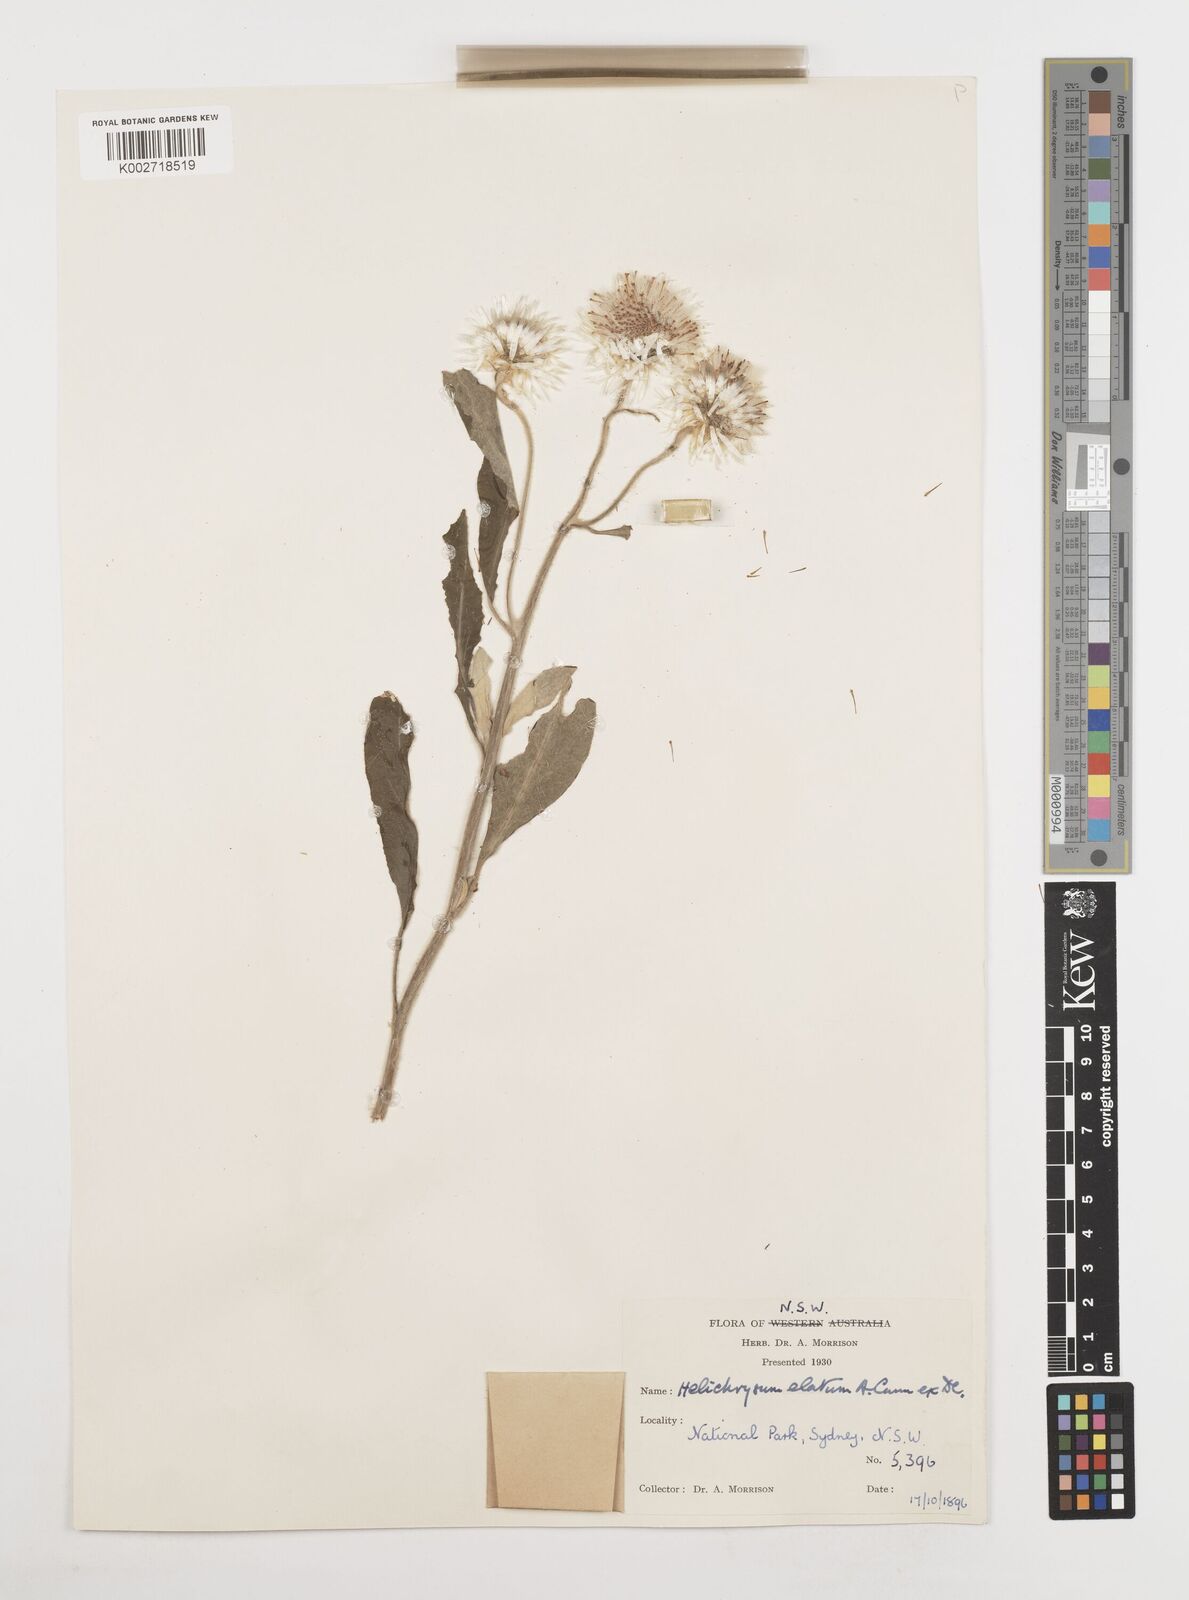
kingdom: Plantae
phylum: Tracheophyta
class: Magnoliopsida
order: Asterales
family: Asteraceae
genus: Leucozoma
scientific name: Leucozoma elatum
